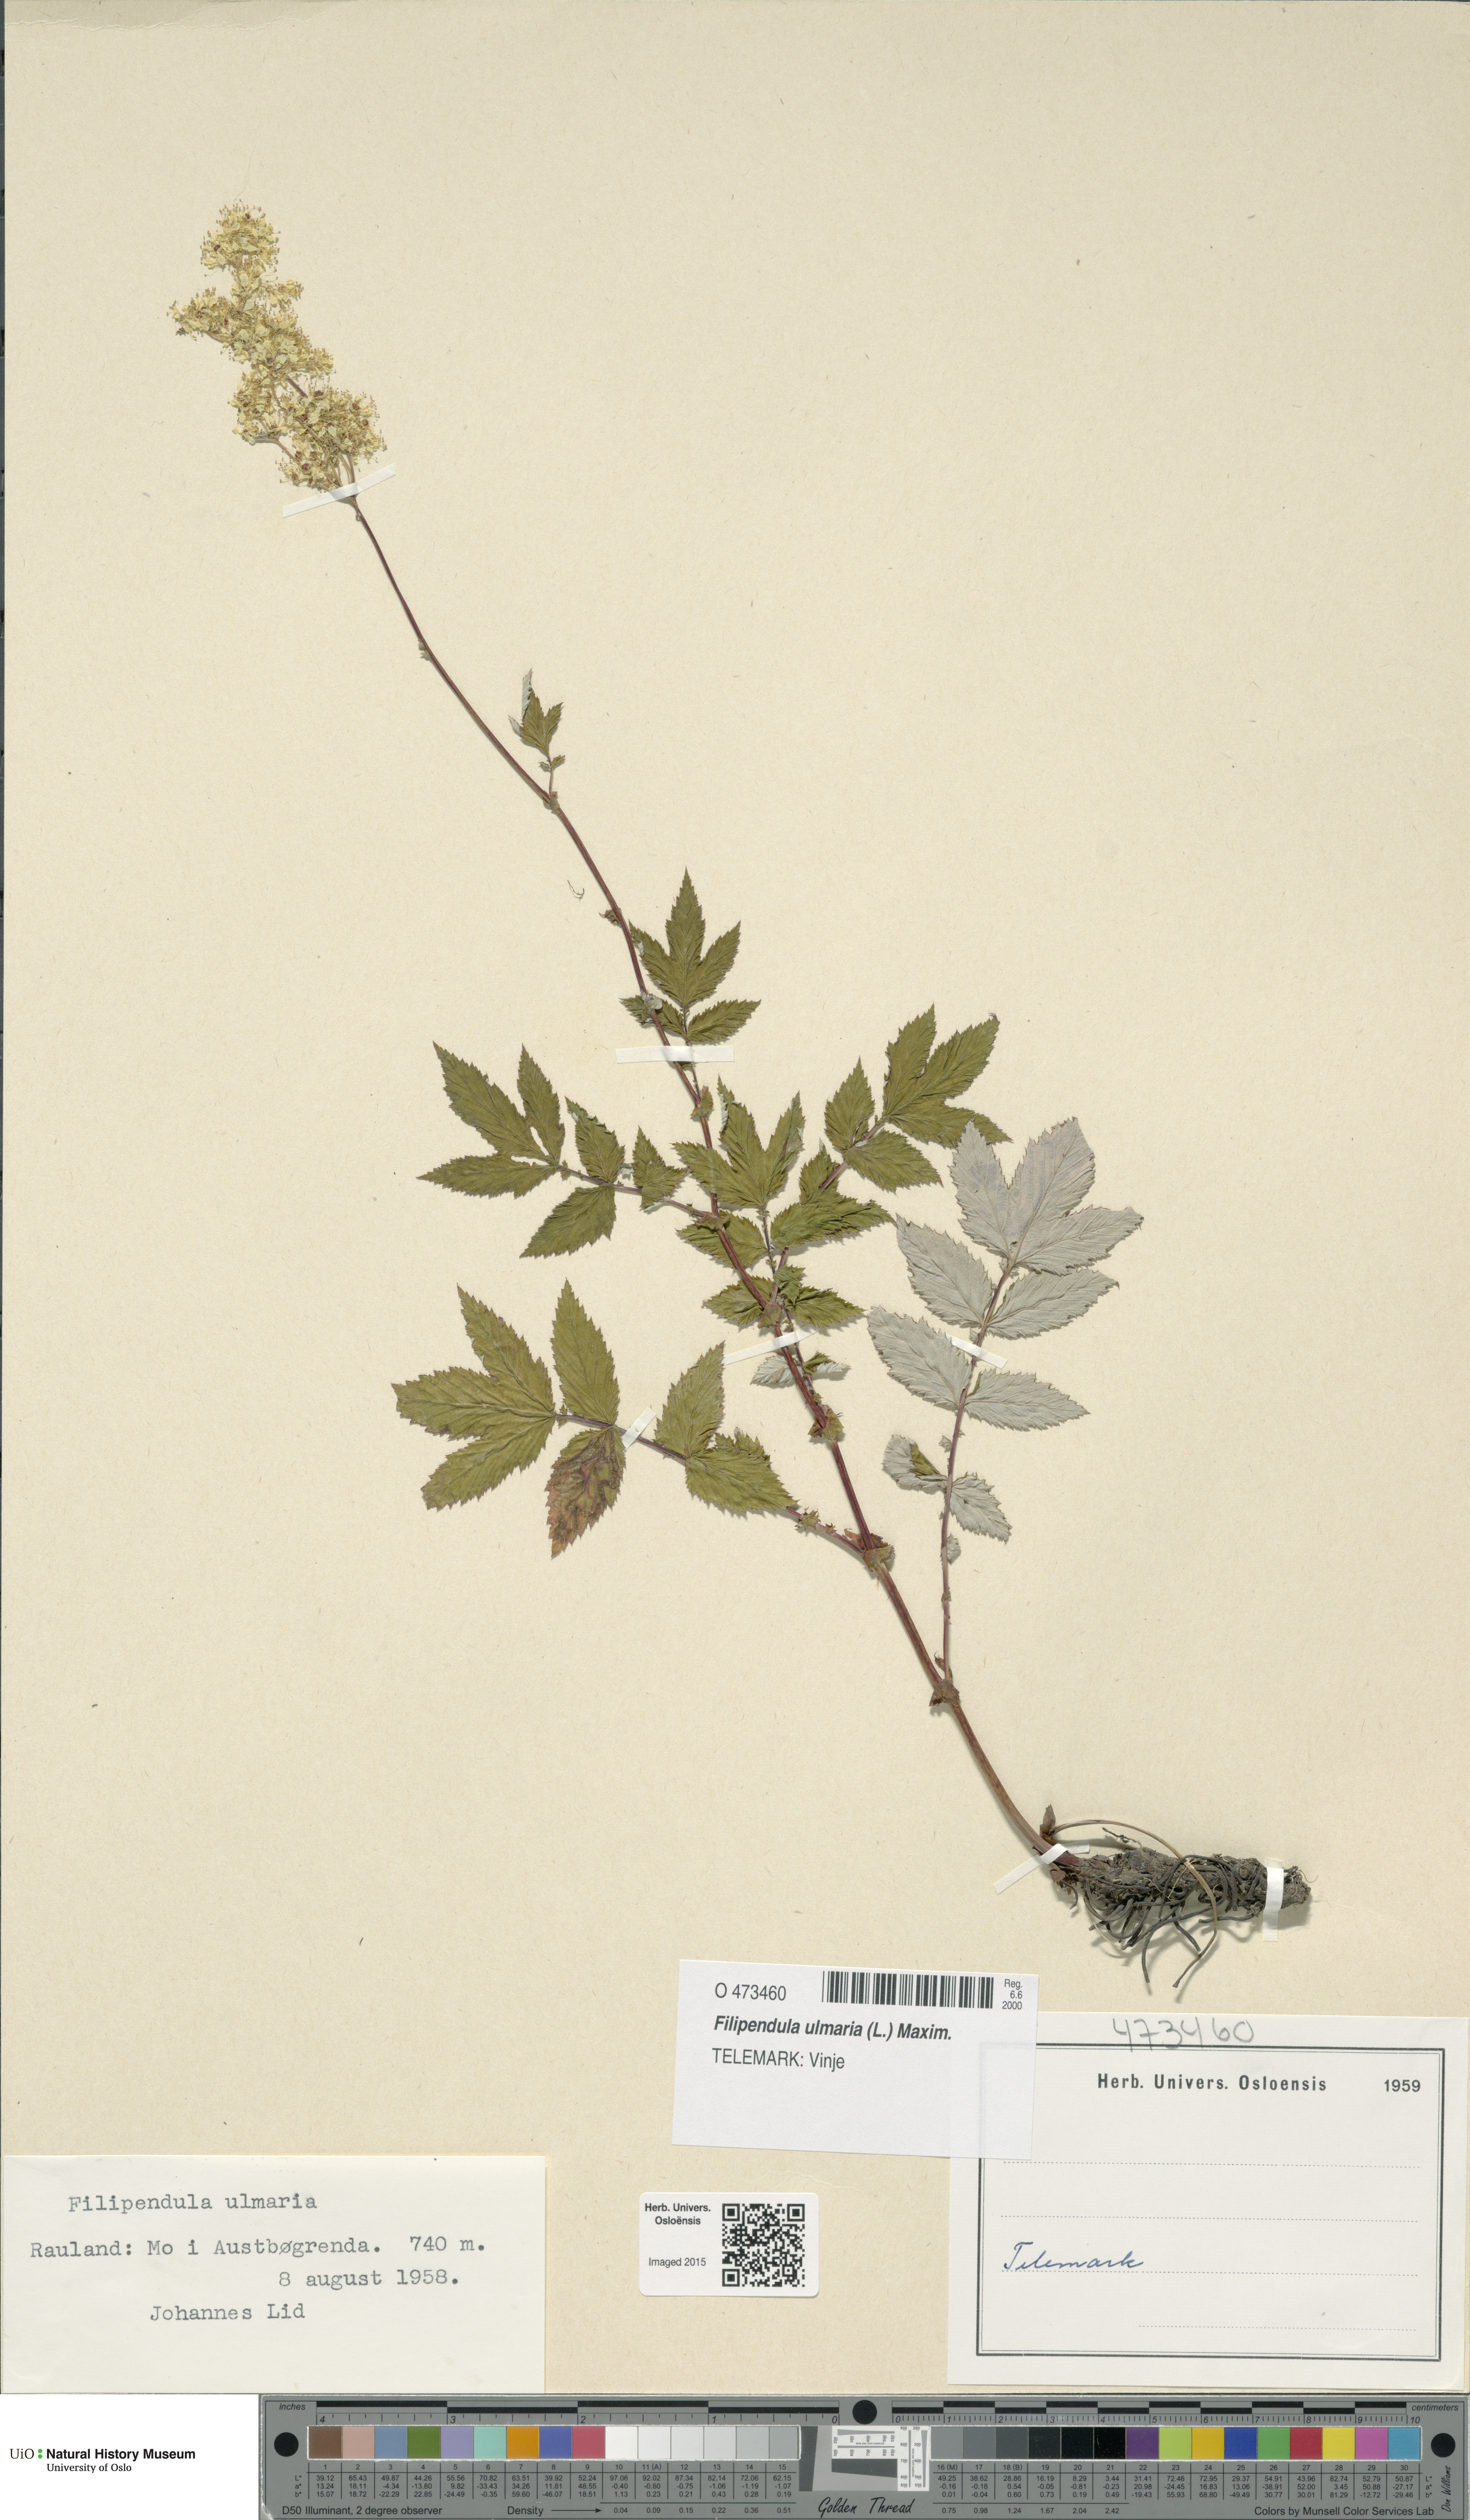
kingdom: Plantae
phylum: Tracheophyta
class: Magnoliopsida
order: Rosales
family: Rosaceae
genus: Filipendula
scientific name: Filipendula ulmaria
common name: Meadowsweet
